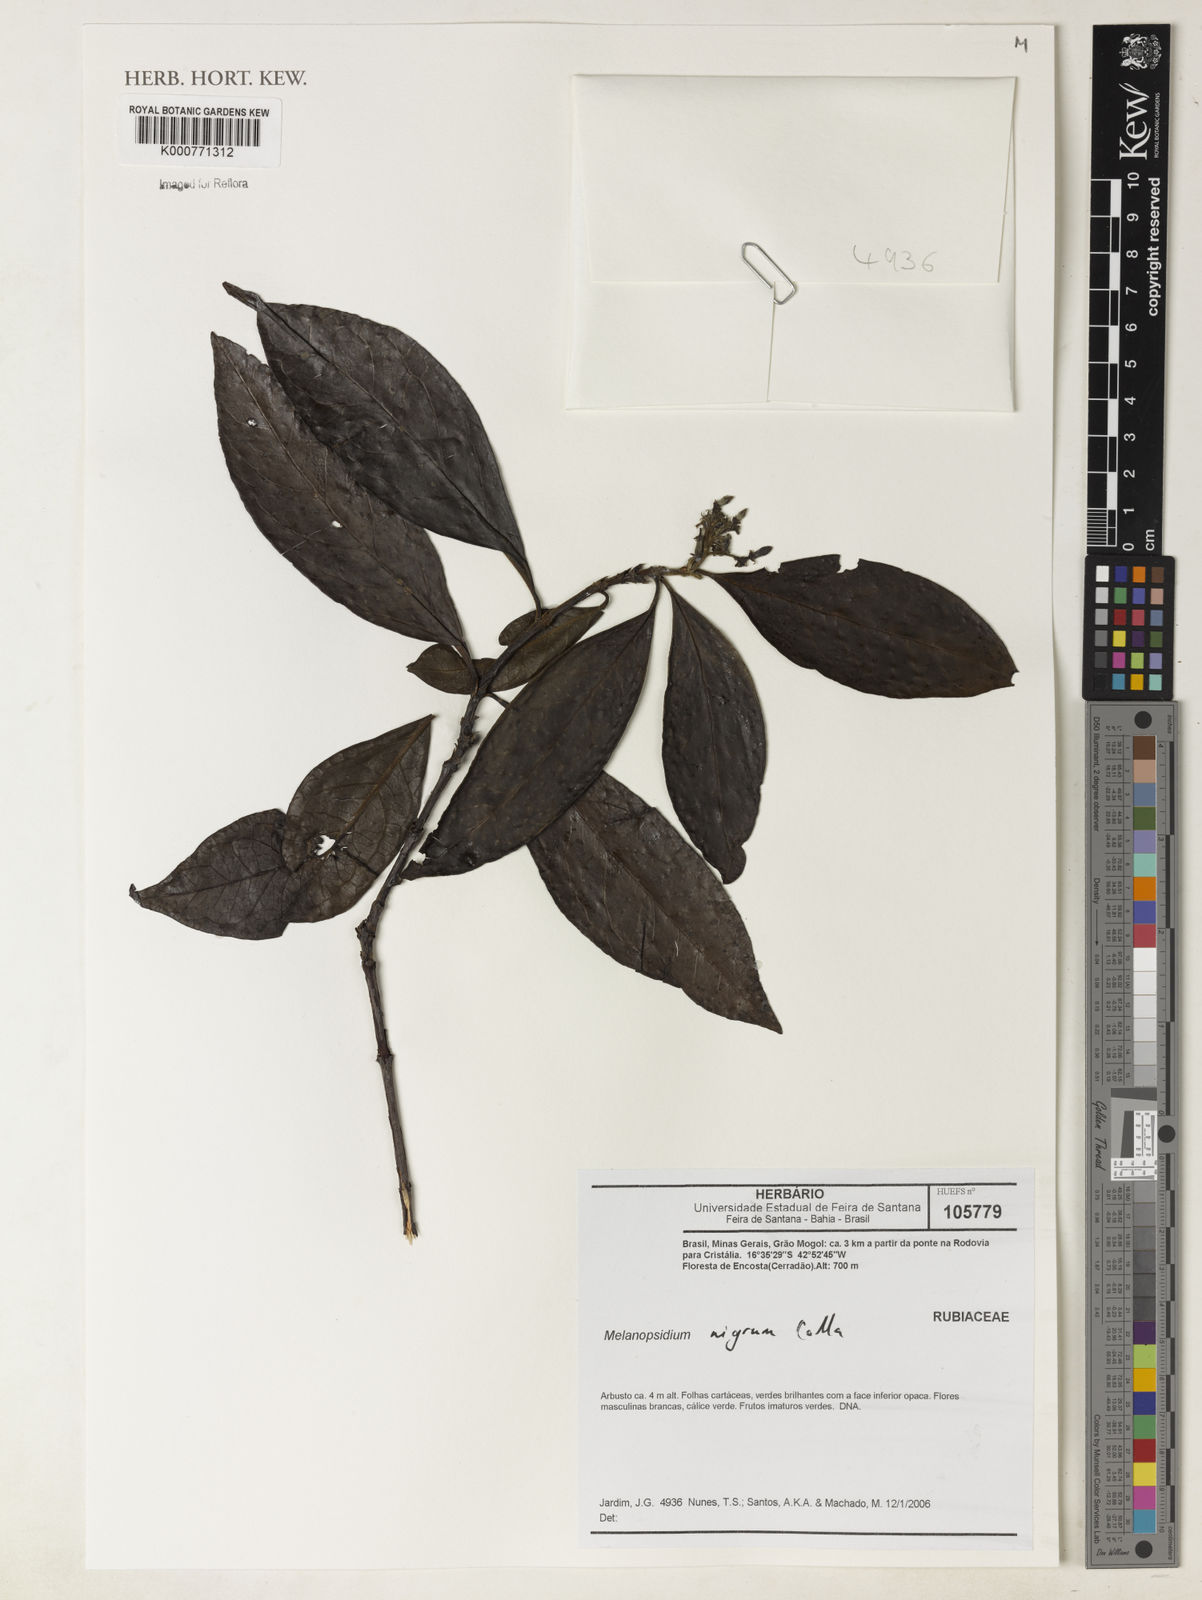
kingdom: Plantae
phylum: Tracheophyta
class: Magnoliopsida
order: Gentianales
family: Rubiaceae
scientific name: Rubiaceae
